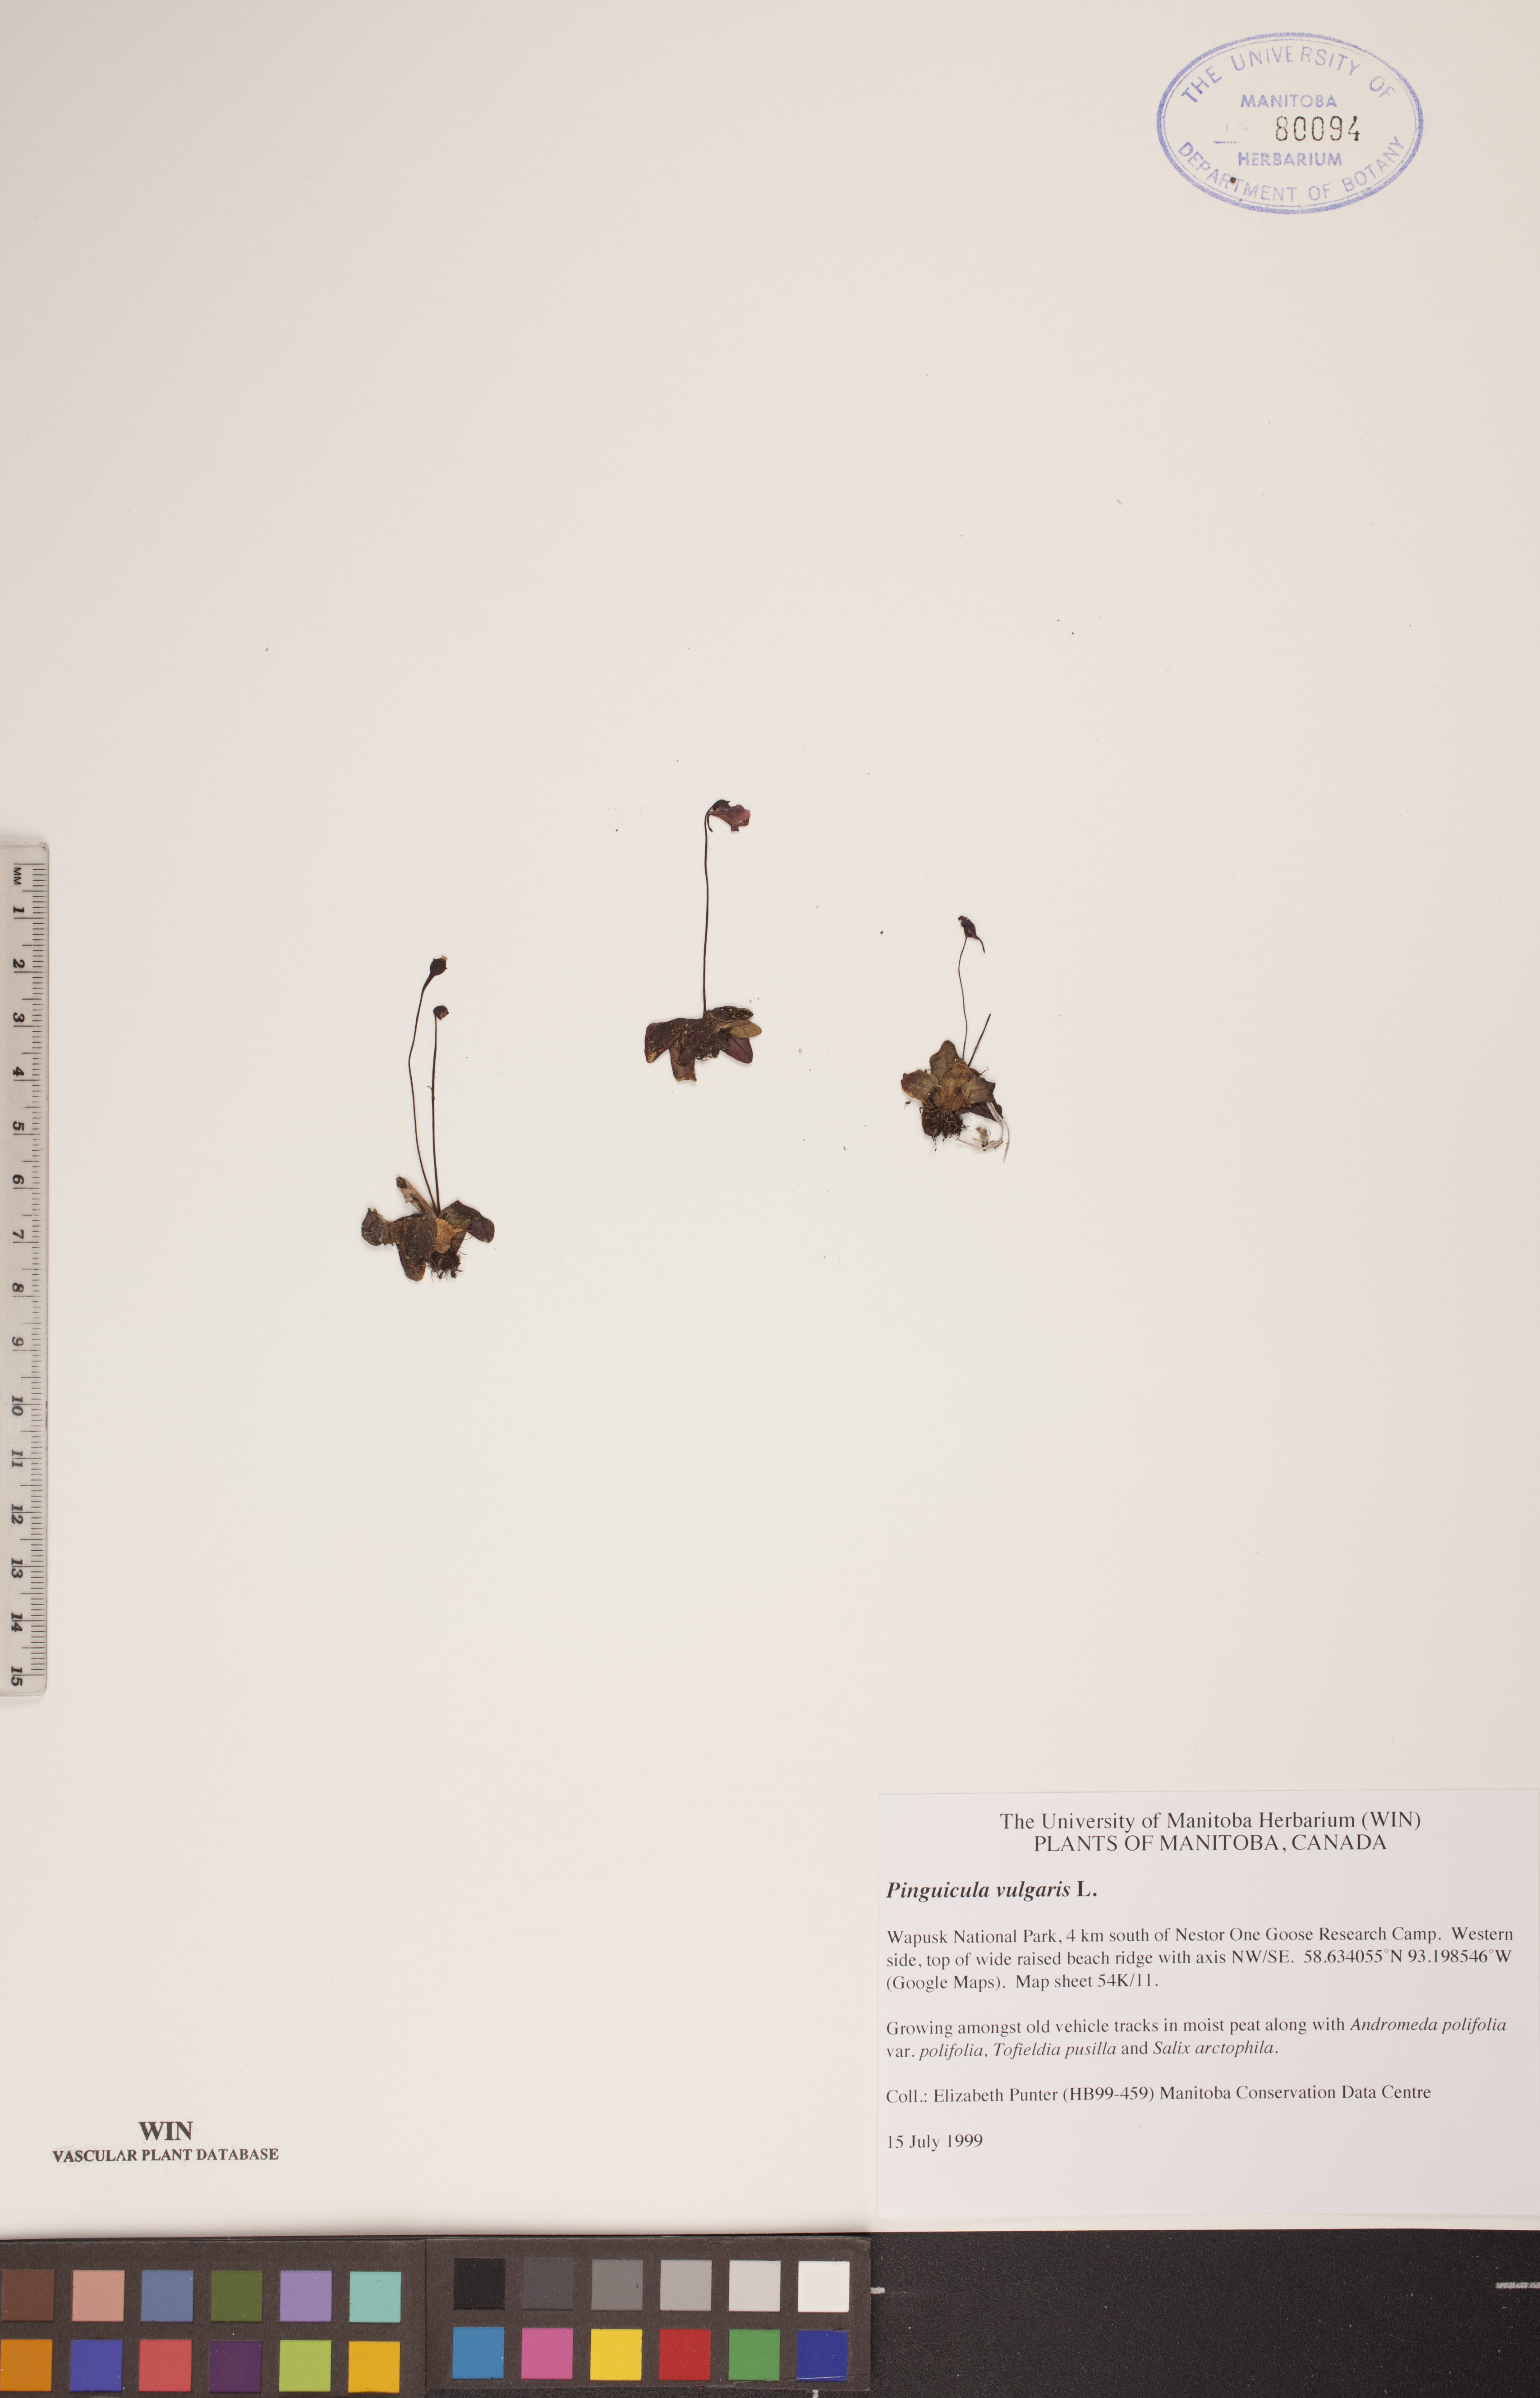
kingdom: Plantae
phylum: Tracheophyta
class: Magnoliopsida
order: Lamiales
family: Lentibulariaceae
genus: Pinguicula
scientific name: Pinguicula vulgaris
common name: Common butterwort
